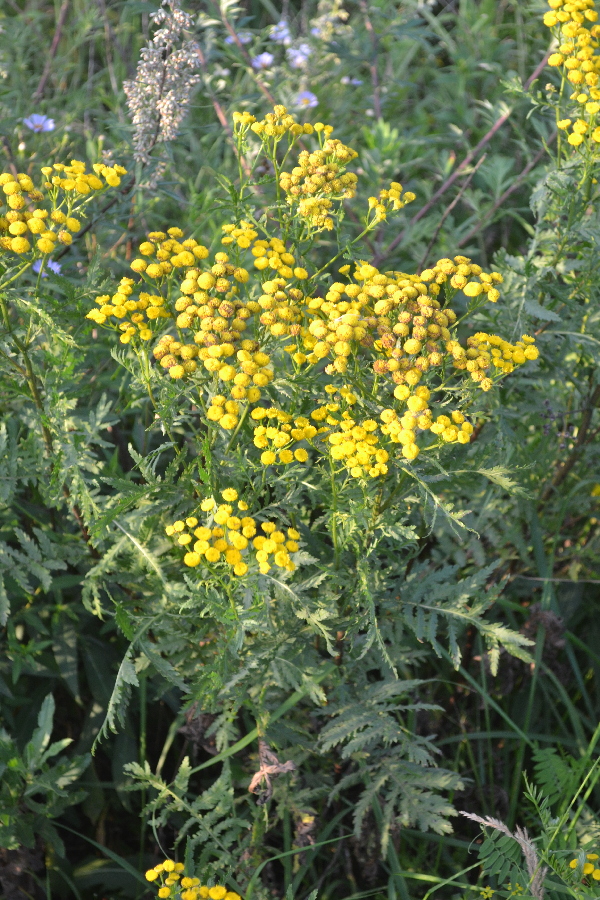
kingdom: Plantae
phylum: Tracheophyta
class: Magnoliopsida
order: Asterales
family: Asteraceae
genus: Tanacetum
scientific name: Tanacetum vulgare
